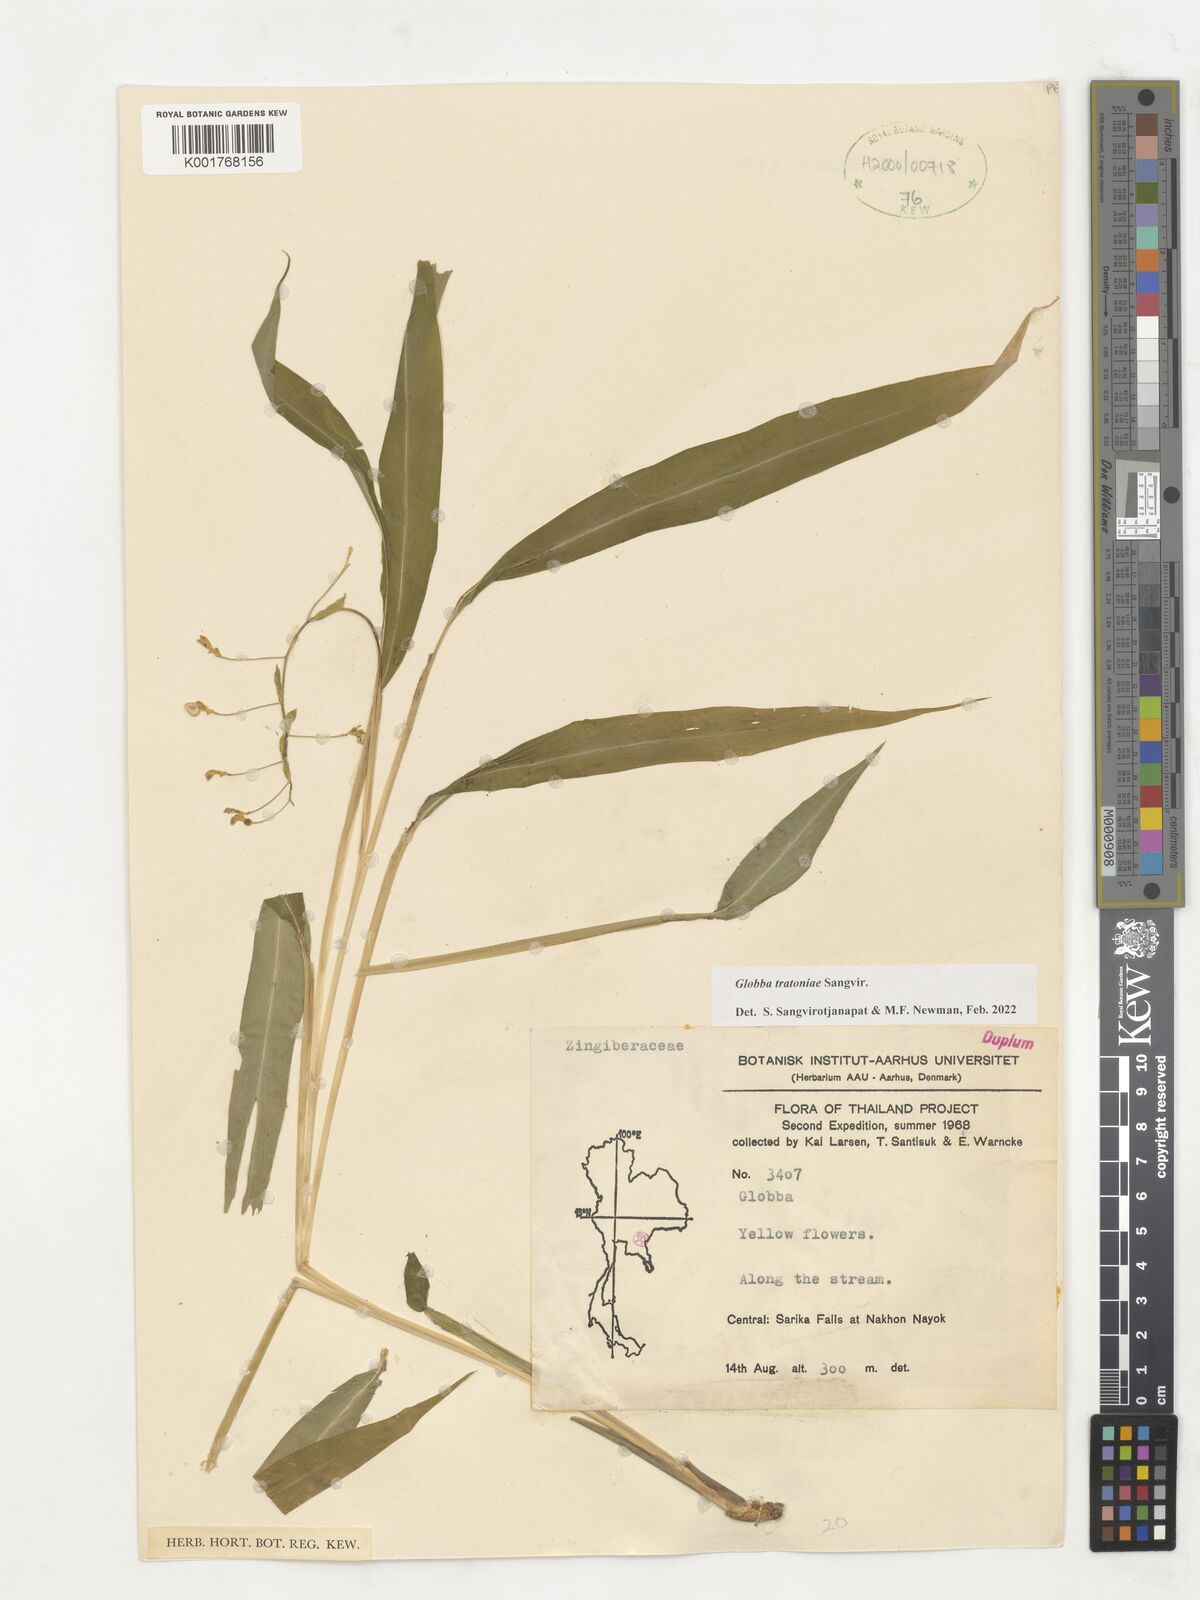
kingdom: Plantae
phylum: Tracheophyta
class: Liliopsida
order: Zingiberales
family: Zingiberaceae
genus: Globba
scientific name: Globba
